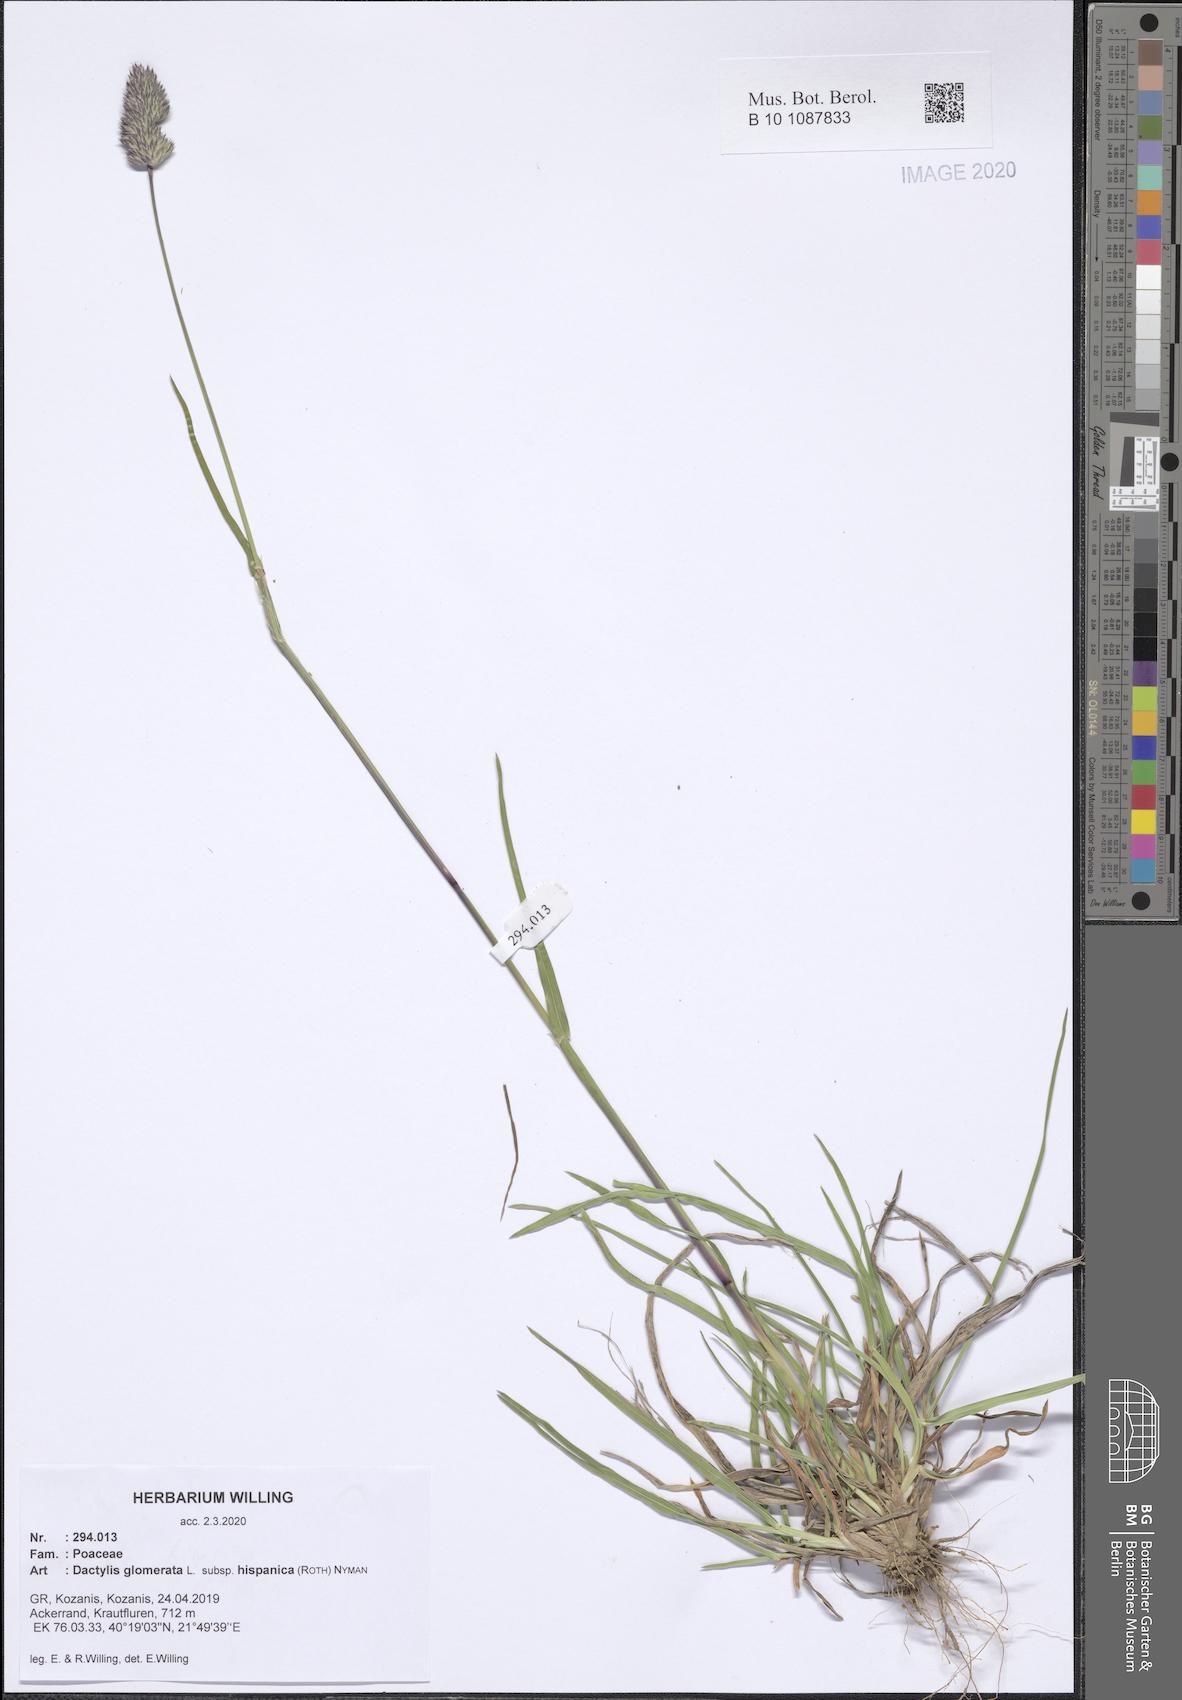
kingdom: Plantae
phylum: Tracheophyta
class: Liliopsida
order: Poales
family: Poaceae
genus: Dactylis
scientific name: Dactylis glomerata
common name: Orchardgrass
